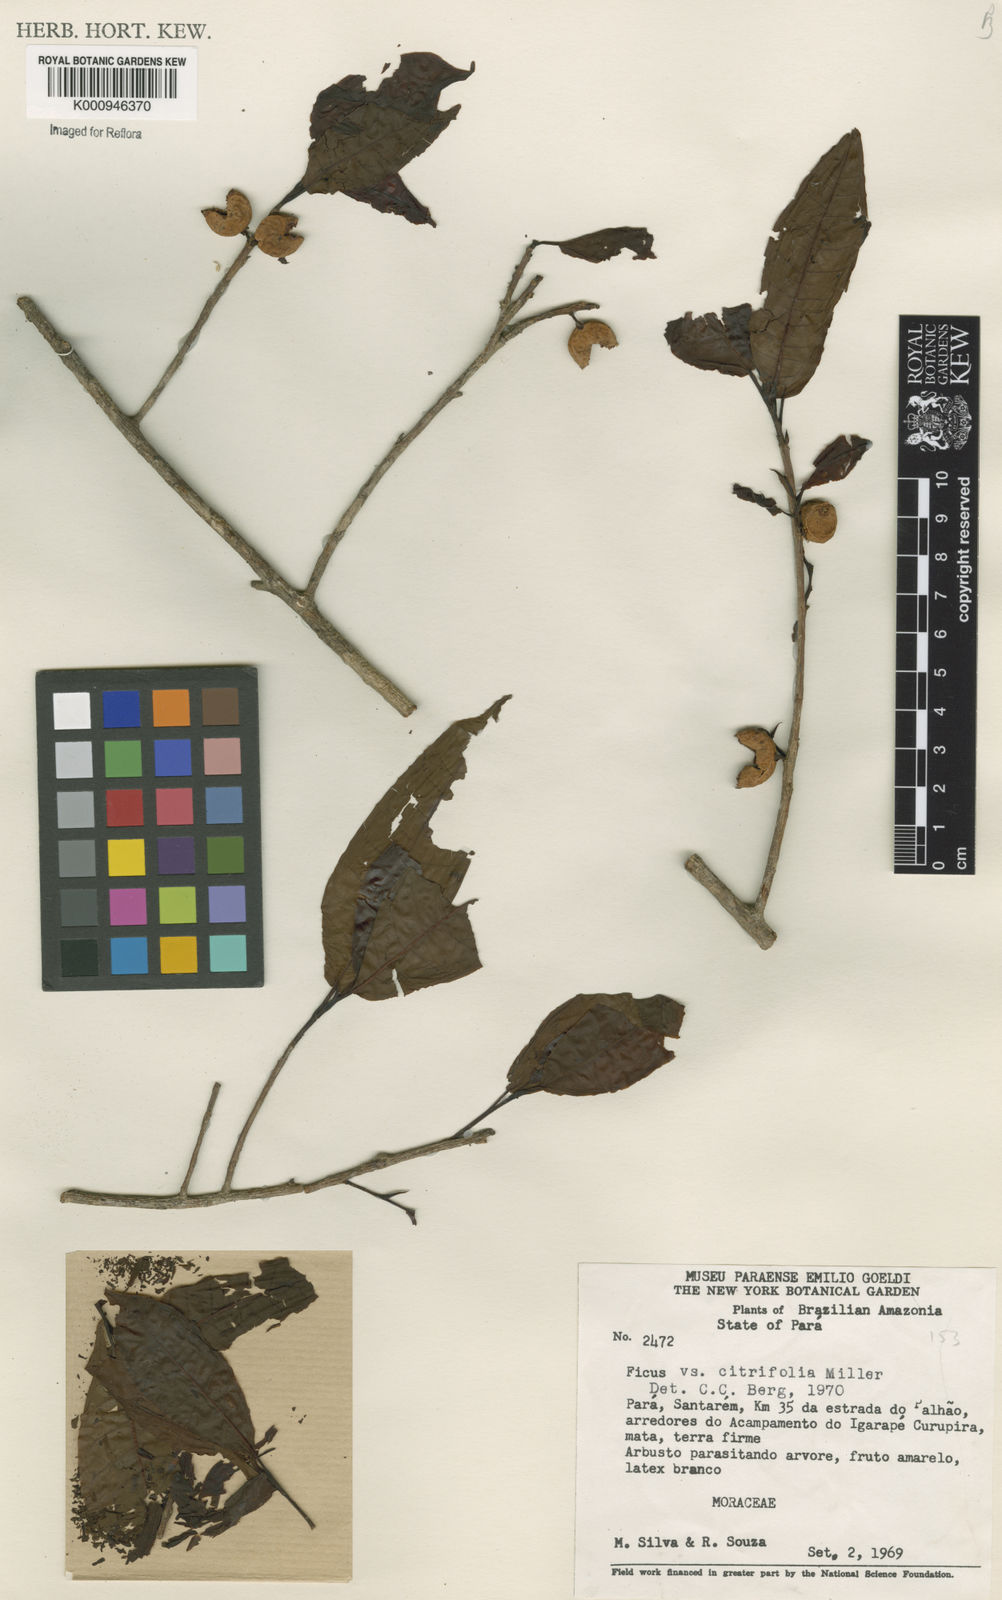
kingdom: Plantae
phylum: Tracheophyta
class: Magnoliopsida
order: Rosales
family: Moraceae
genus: Ficus
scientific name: Ficus citrifolia
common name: Strangler fig
